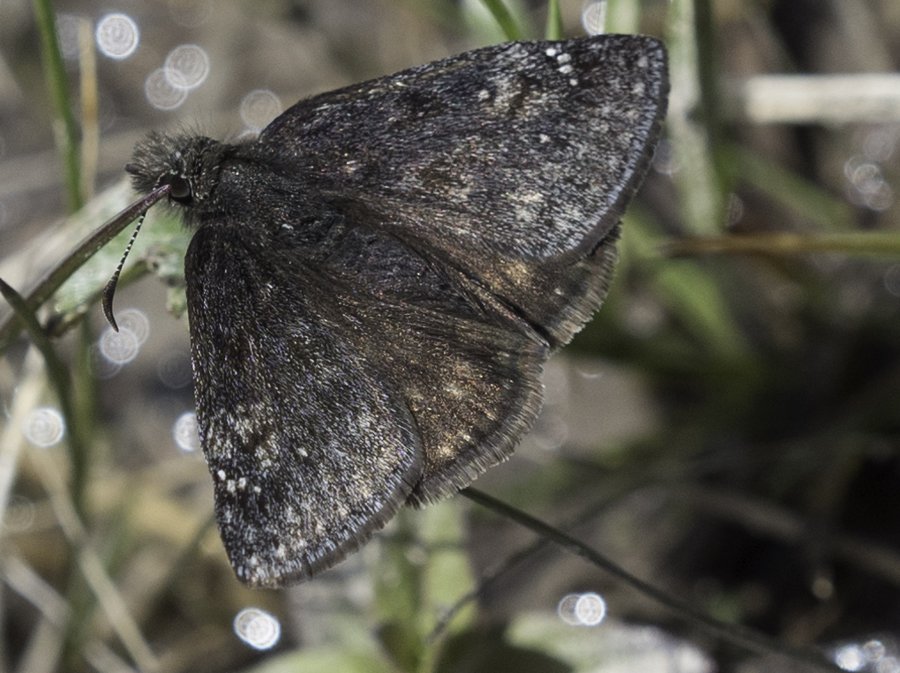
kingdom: Animalia
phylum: Arthropoda
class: Insecta
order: Lepidoptera
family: Hesperiidae
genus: Gesta
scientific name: Gesta
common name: Persius Duskywing
